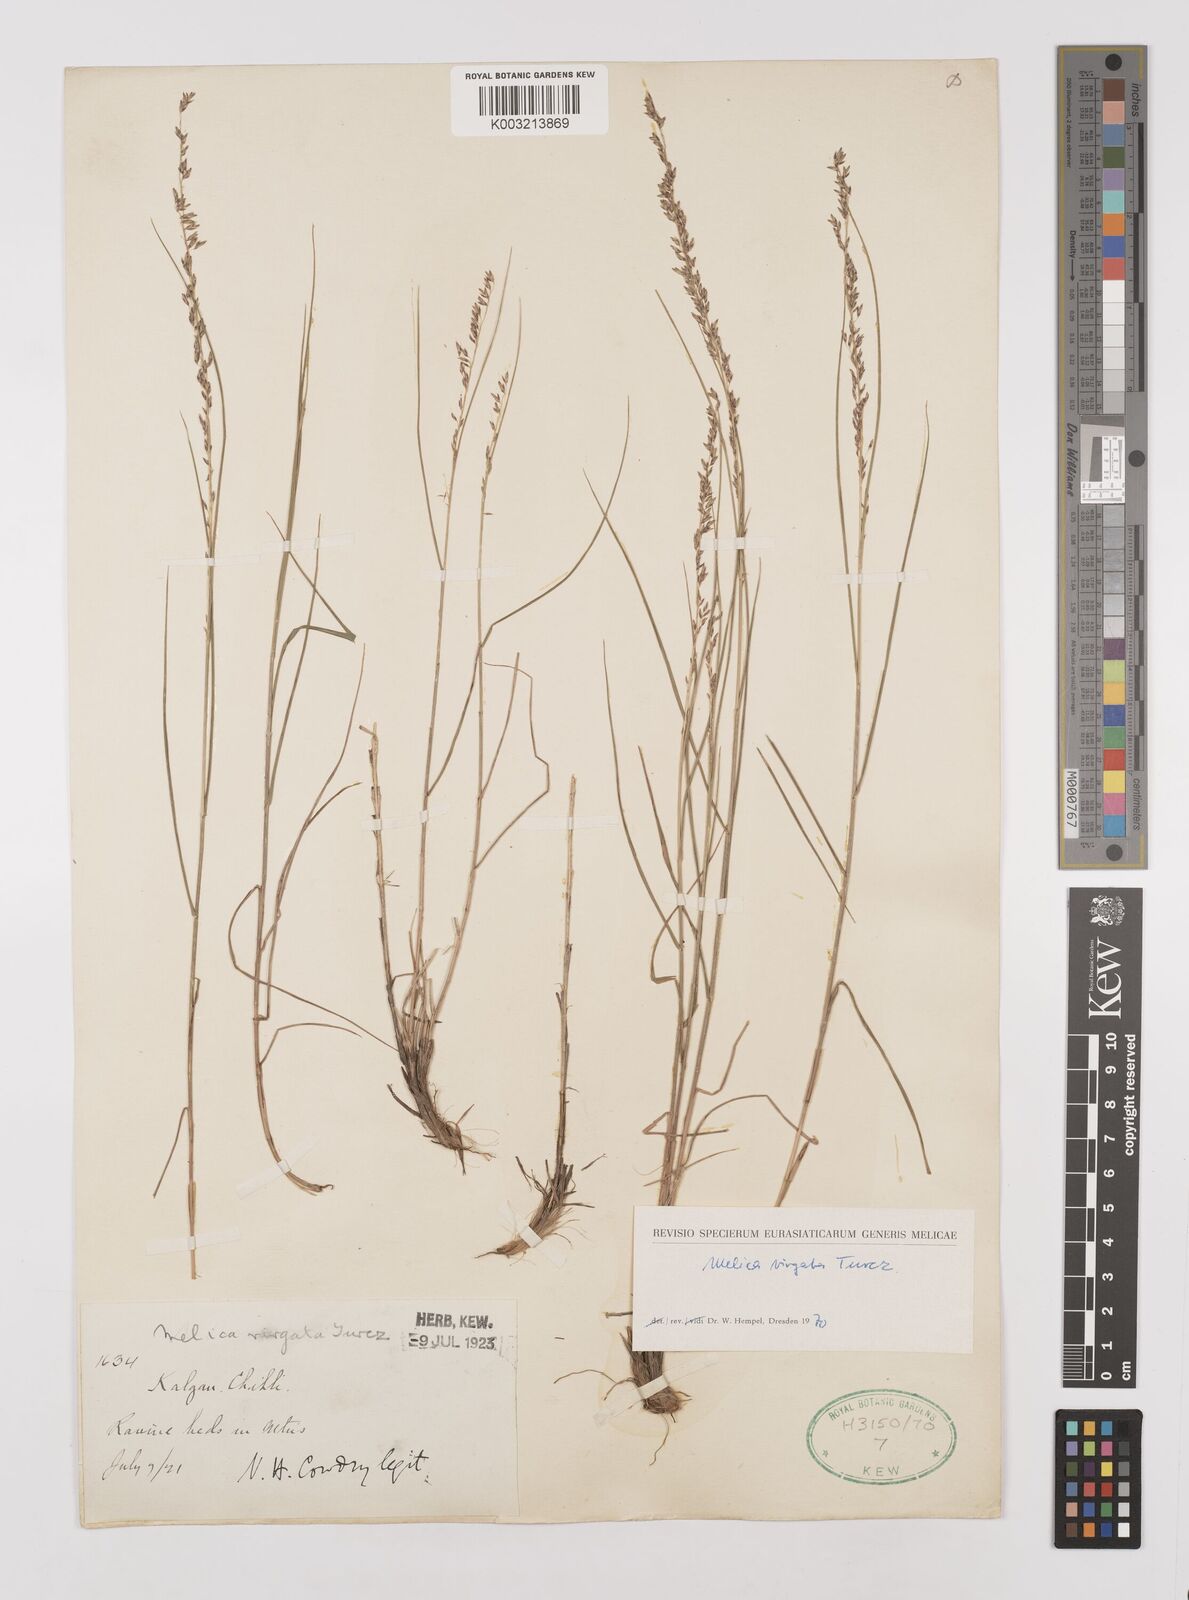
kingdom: Plantae
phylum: Tracheophyta
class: Liliopsida
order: Poales
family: Poaceae
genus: Melica
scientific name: Melica virgata
